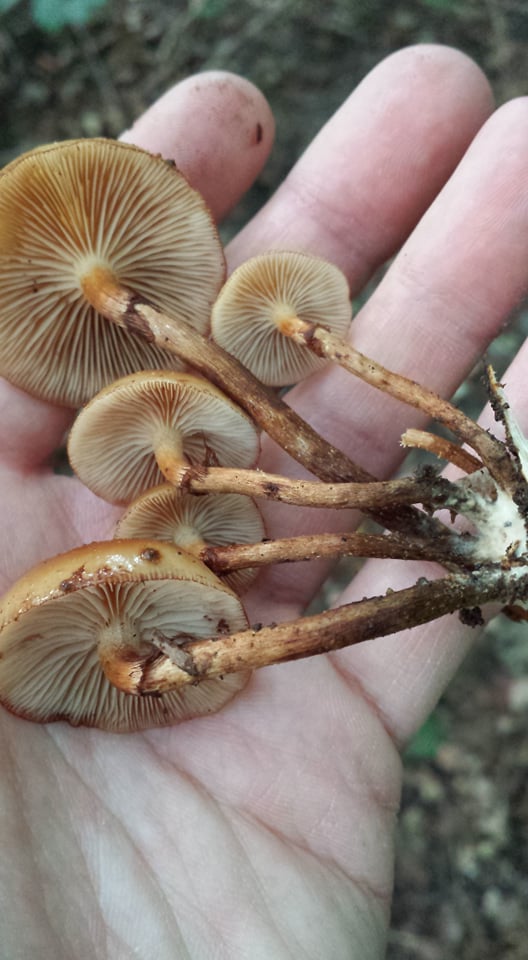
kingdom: Fungi
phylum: Basidiomycota
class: Agaricomycetes
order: Agaricales
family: Strophariaceae
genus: Kuehneromyces
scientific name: Kuehneromyces mutabilis
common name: foranderlig skælhat
